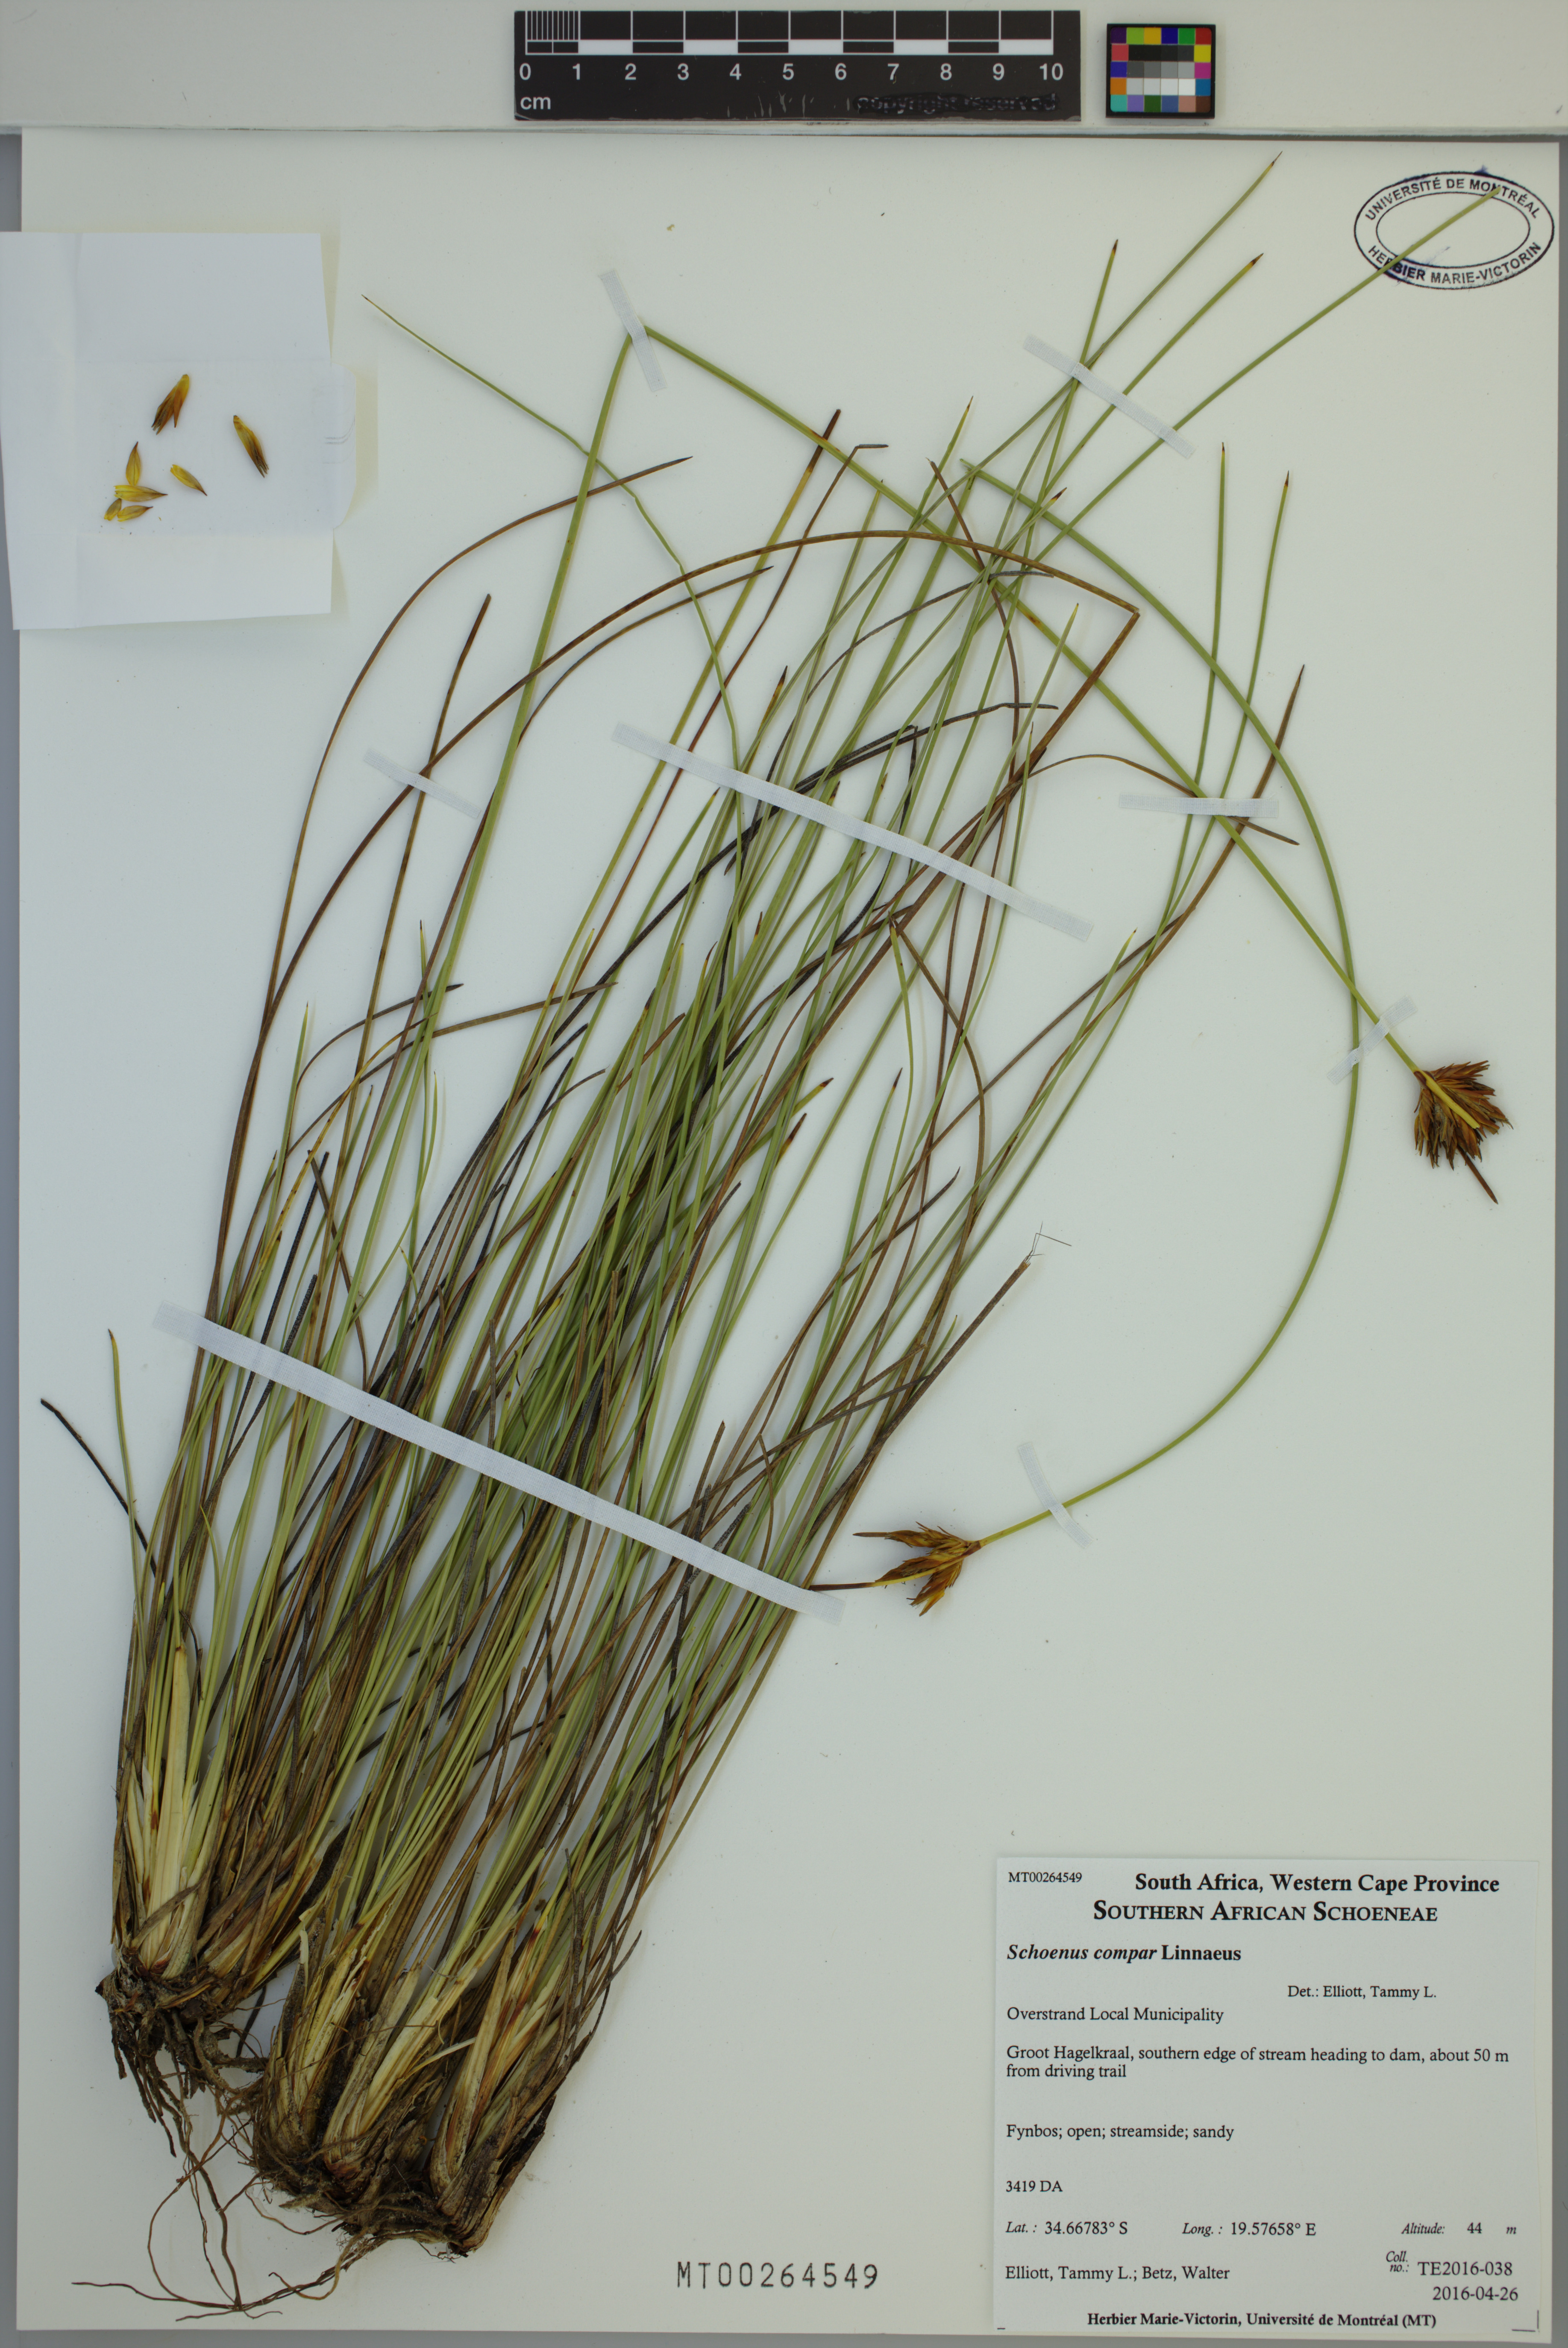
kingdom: Plantae
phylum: Tracheophyta
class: Liliopsida
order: Poales
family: Cyperaceae
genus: Schoenus
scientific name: Schoenus compar
